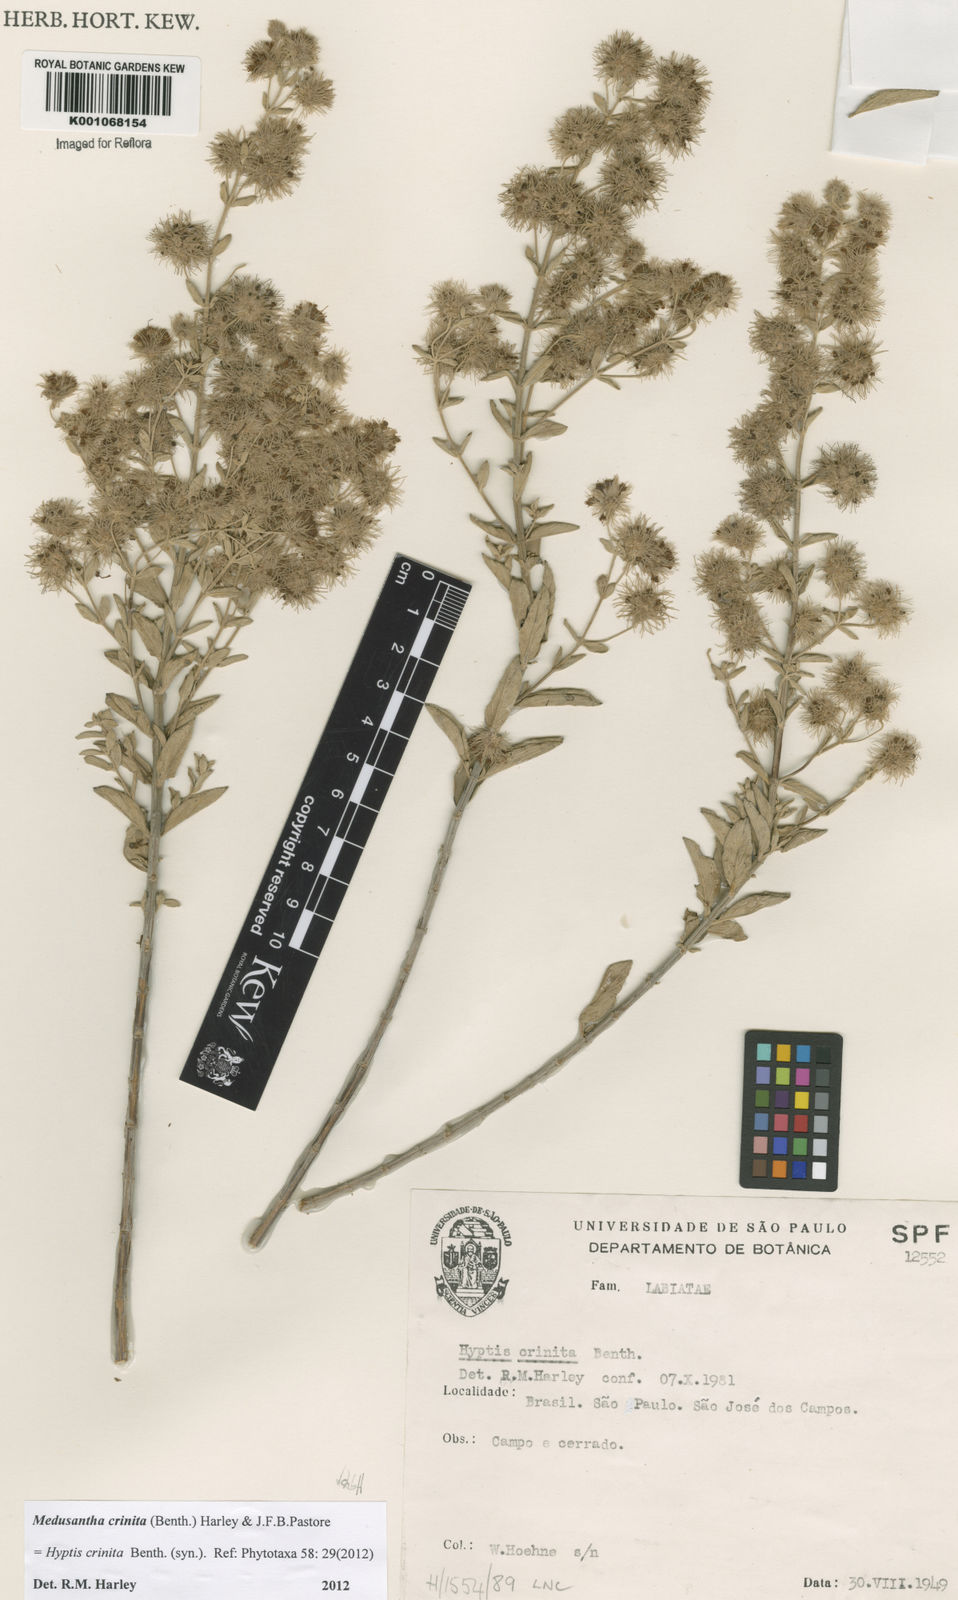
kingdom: Plantae
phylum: Tracheophyta
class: Magnoliopsida
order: Lamiales
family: Lamiaceae
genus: Medusantha
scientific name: Medusantha crinita
